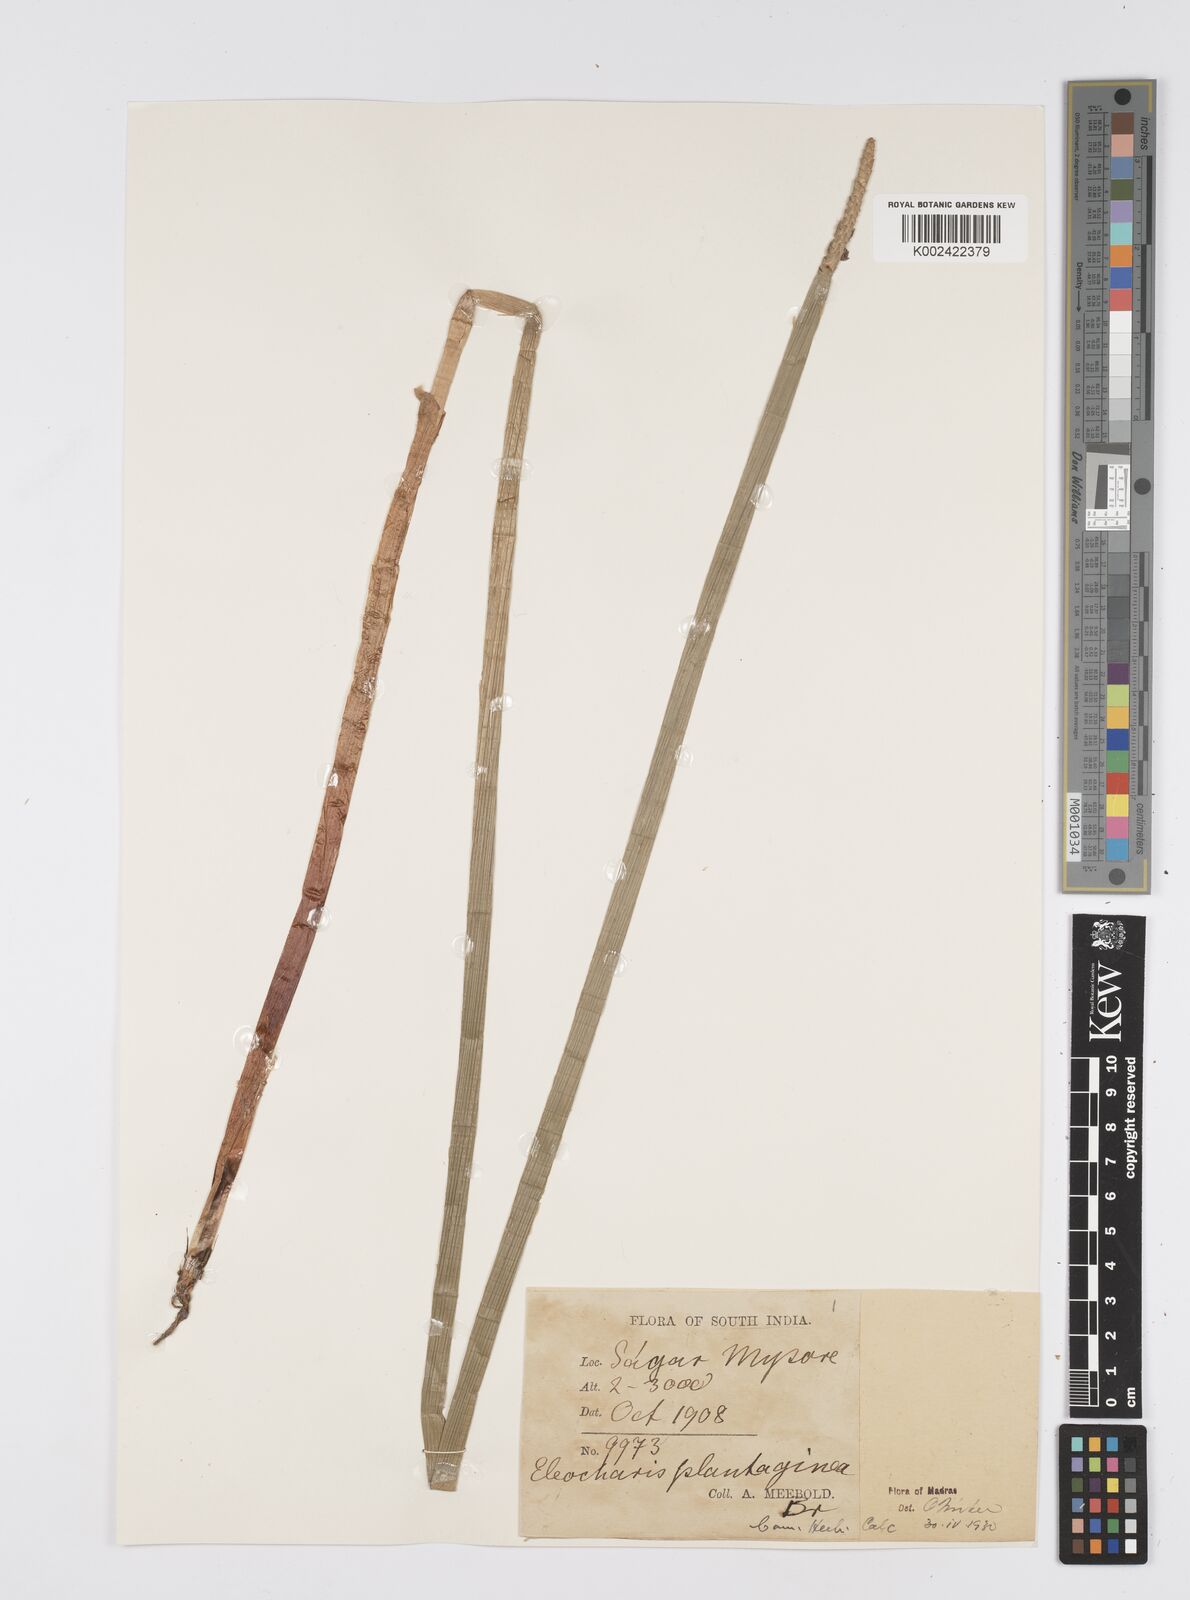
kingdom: Plantae
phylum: Tracheophyta
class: Liliopsida
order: Poales
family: Cyperaceae
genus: Eleocharis
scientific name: Eleocharis dulcis
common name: Chinese water chestnut
